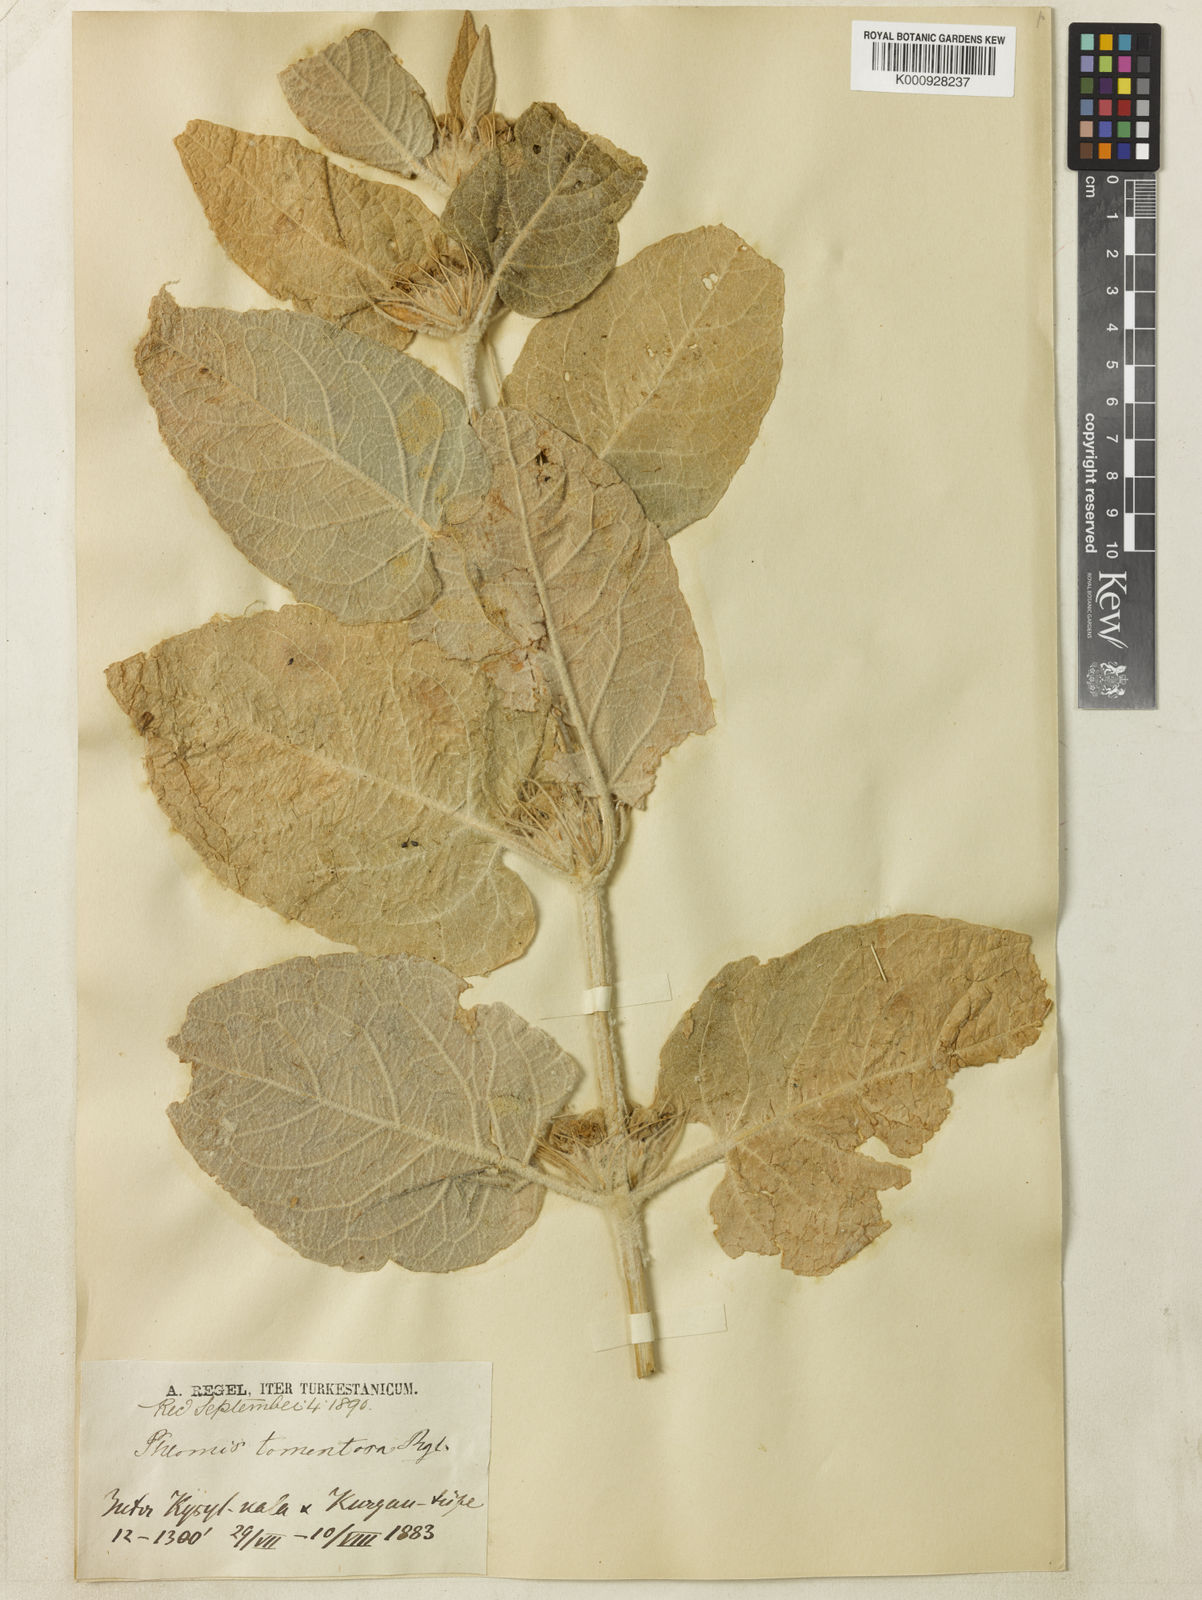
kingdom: Plantae
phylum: Tracheophyta
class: Magnoliopsida
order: Lamiales
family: Lamiaceae
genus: Phlomis
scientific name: Phlomis tomentosa
